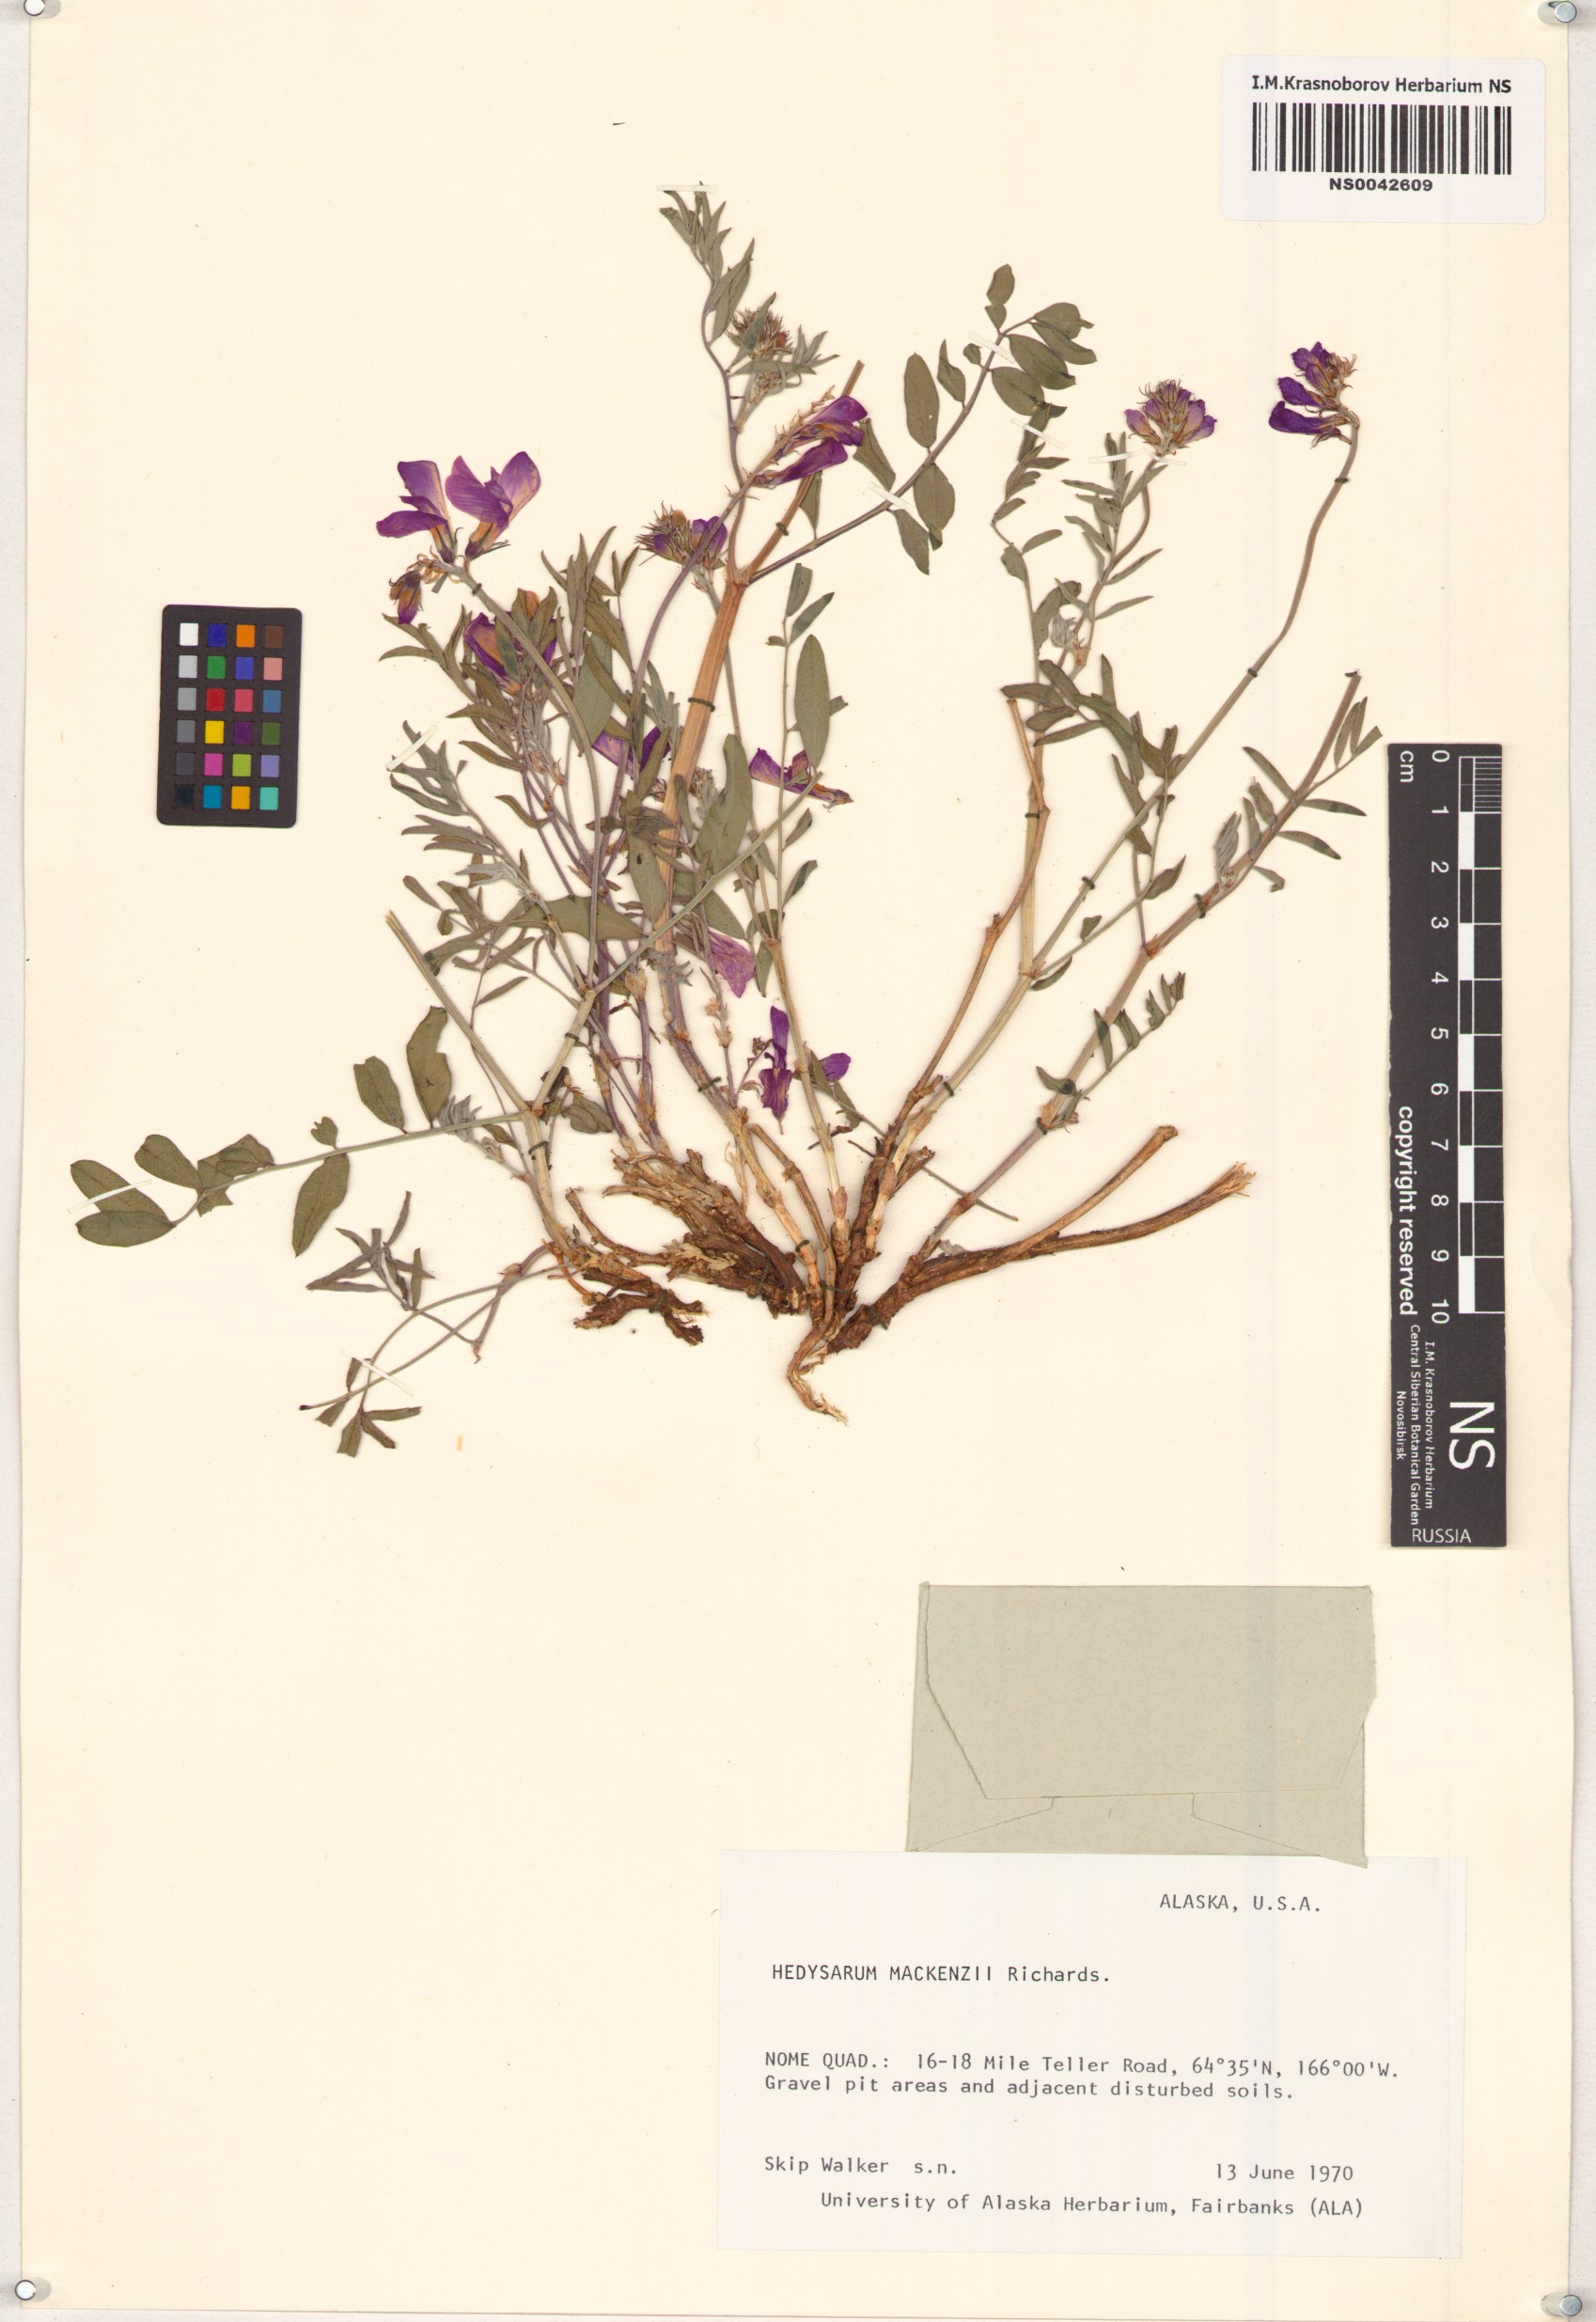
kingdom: Plantae
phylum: Tracheophyta
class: Magnoliopsida
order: Fabales
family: Fabaceae
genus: Hedysarum
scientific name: Hedysarum boreale
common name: Northern sweet-vetch
